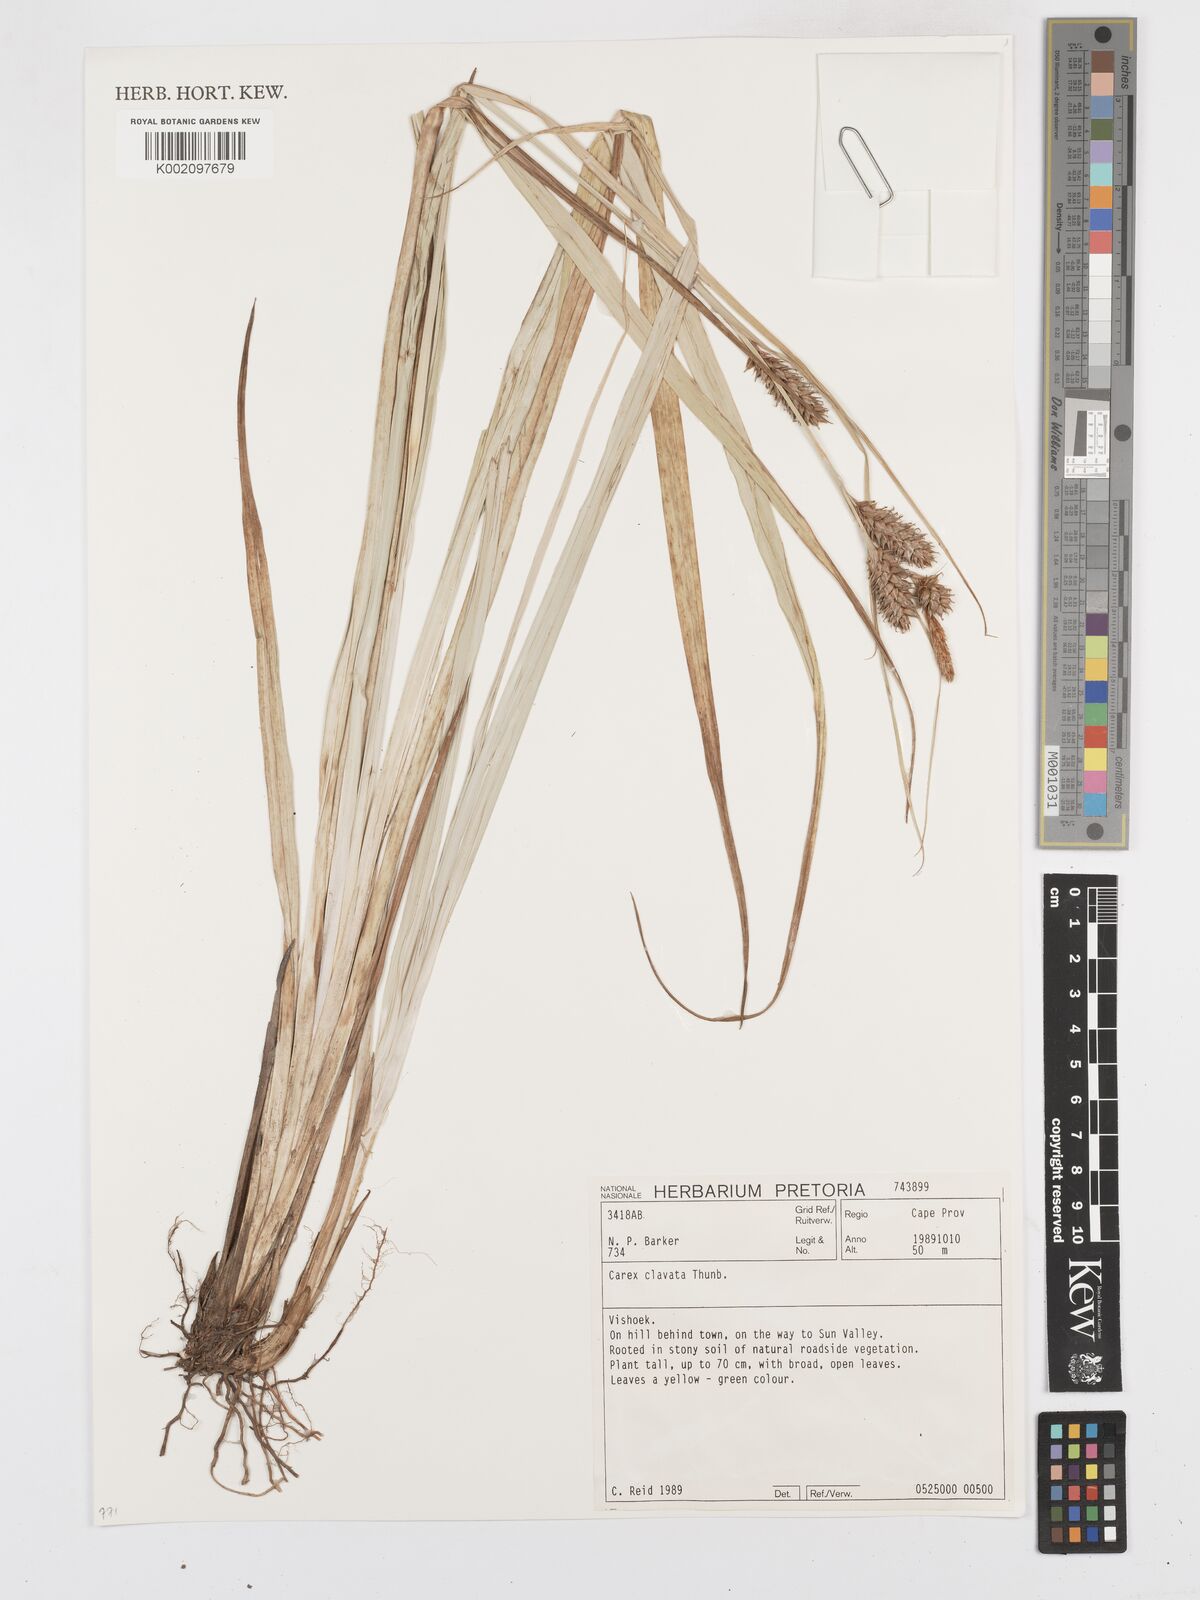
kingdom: Plantae
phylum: Tracheophyta
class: Liliopsida
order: Poales
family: Cyperaceae
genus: Carex
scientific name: Carex clavata
